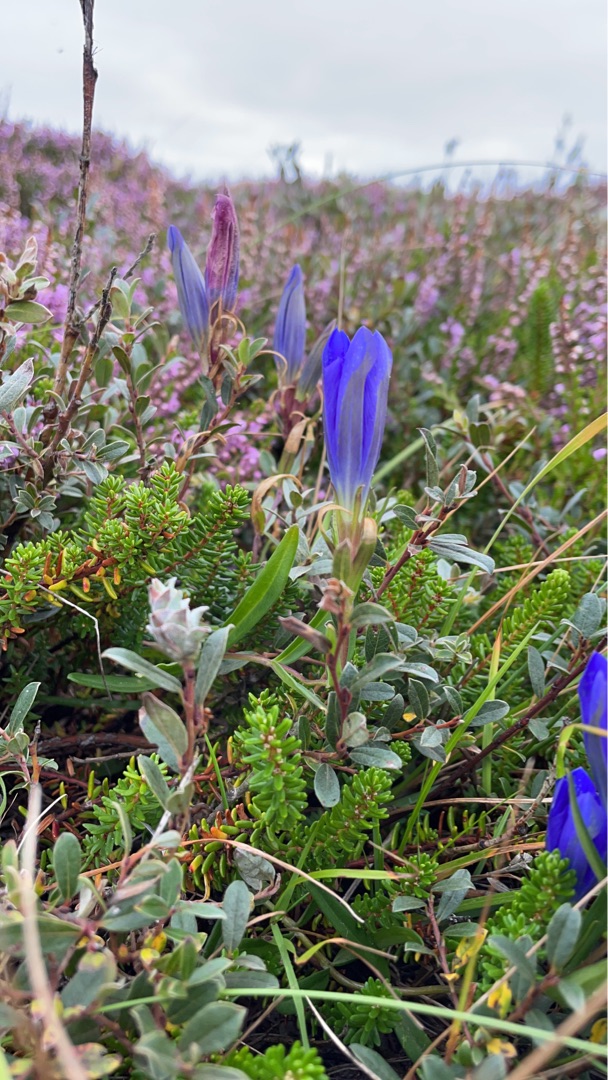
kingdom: Plantae
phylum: Tracheophyta
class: Magnoliopsida
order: Gentianales
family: Gentianaceae
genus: Gentiana
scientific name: Gentiana pneumonanthe
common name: Klokke-ensian
